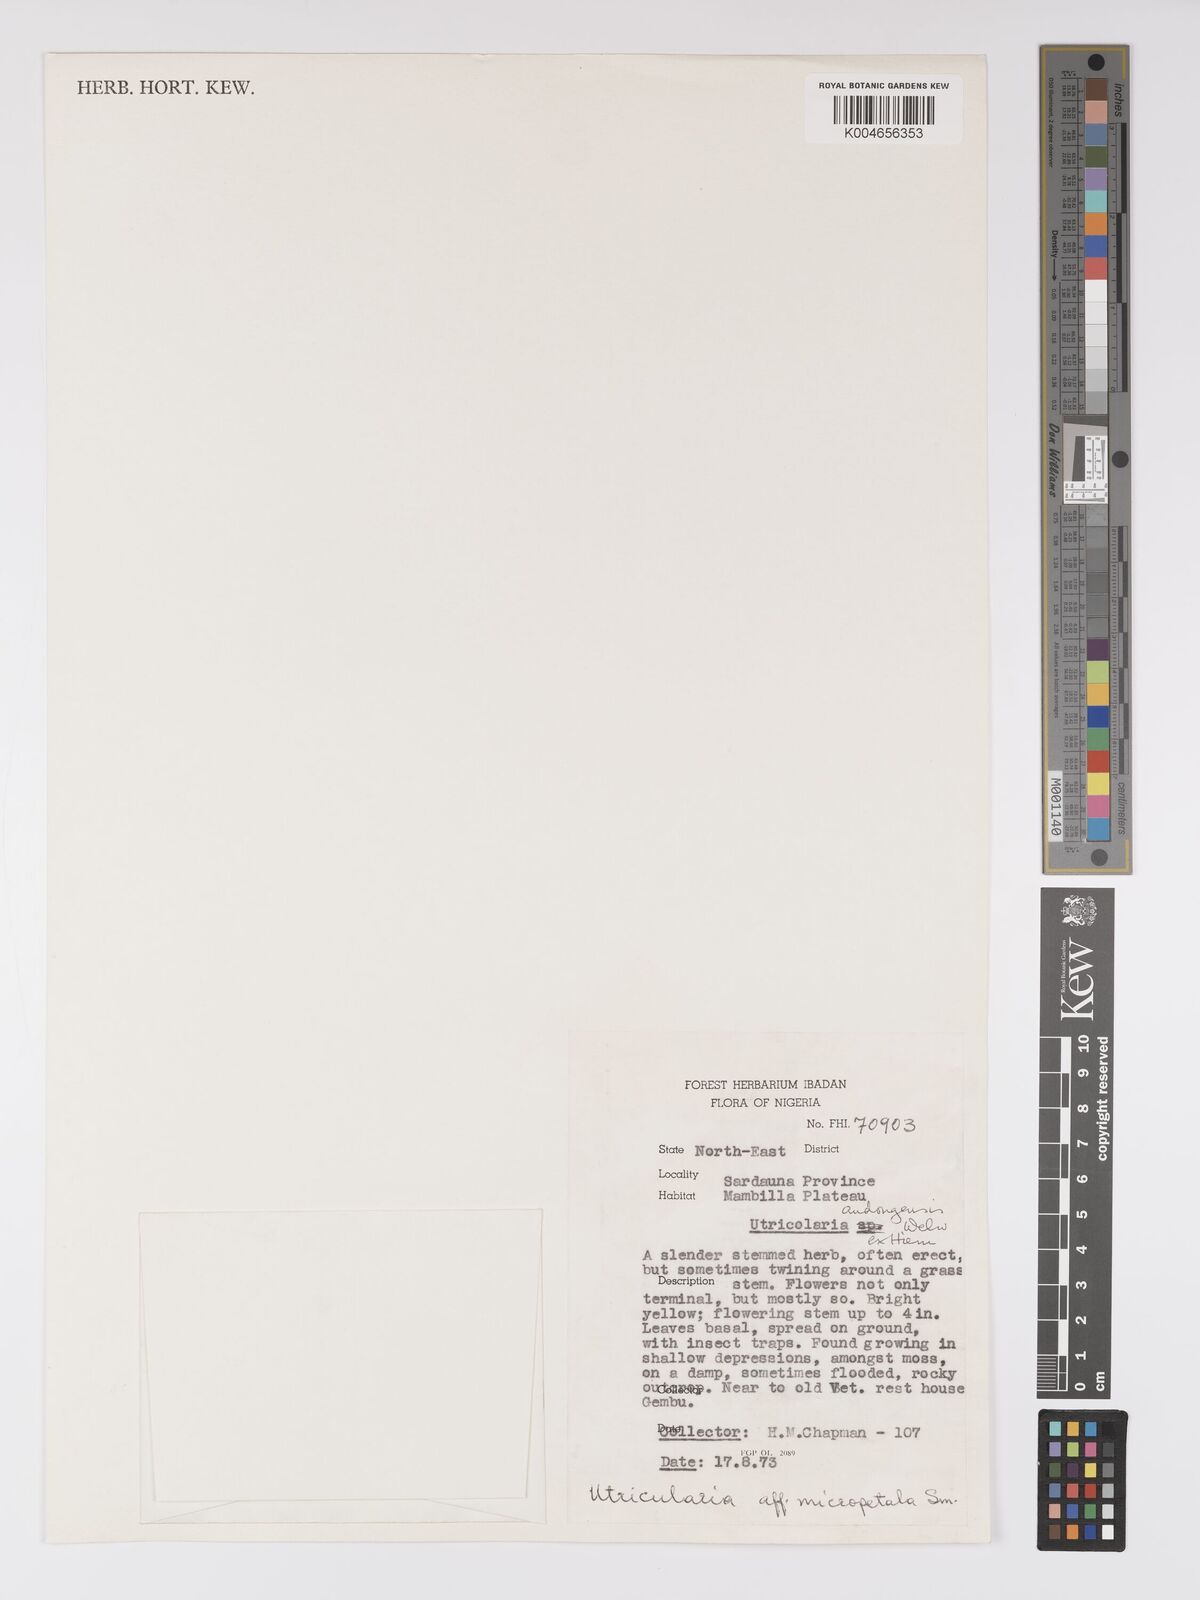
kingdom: Plantae
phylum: Tracheophyta
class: Magnoliopsida
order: Lamiales
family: Lentibulariaceae
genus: Utricularia
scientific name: Utricularia andongensis
